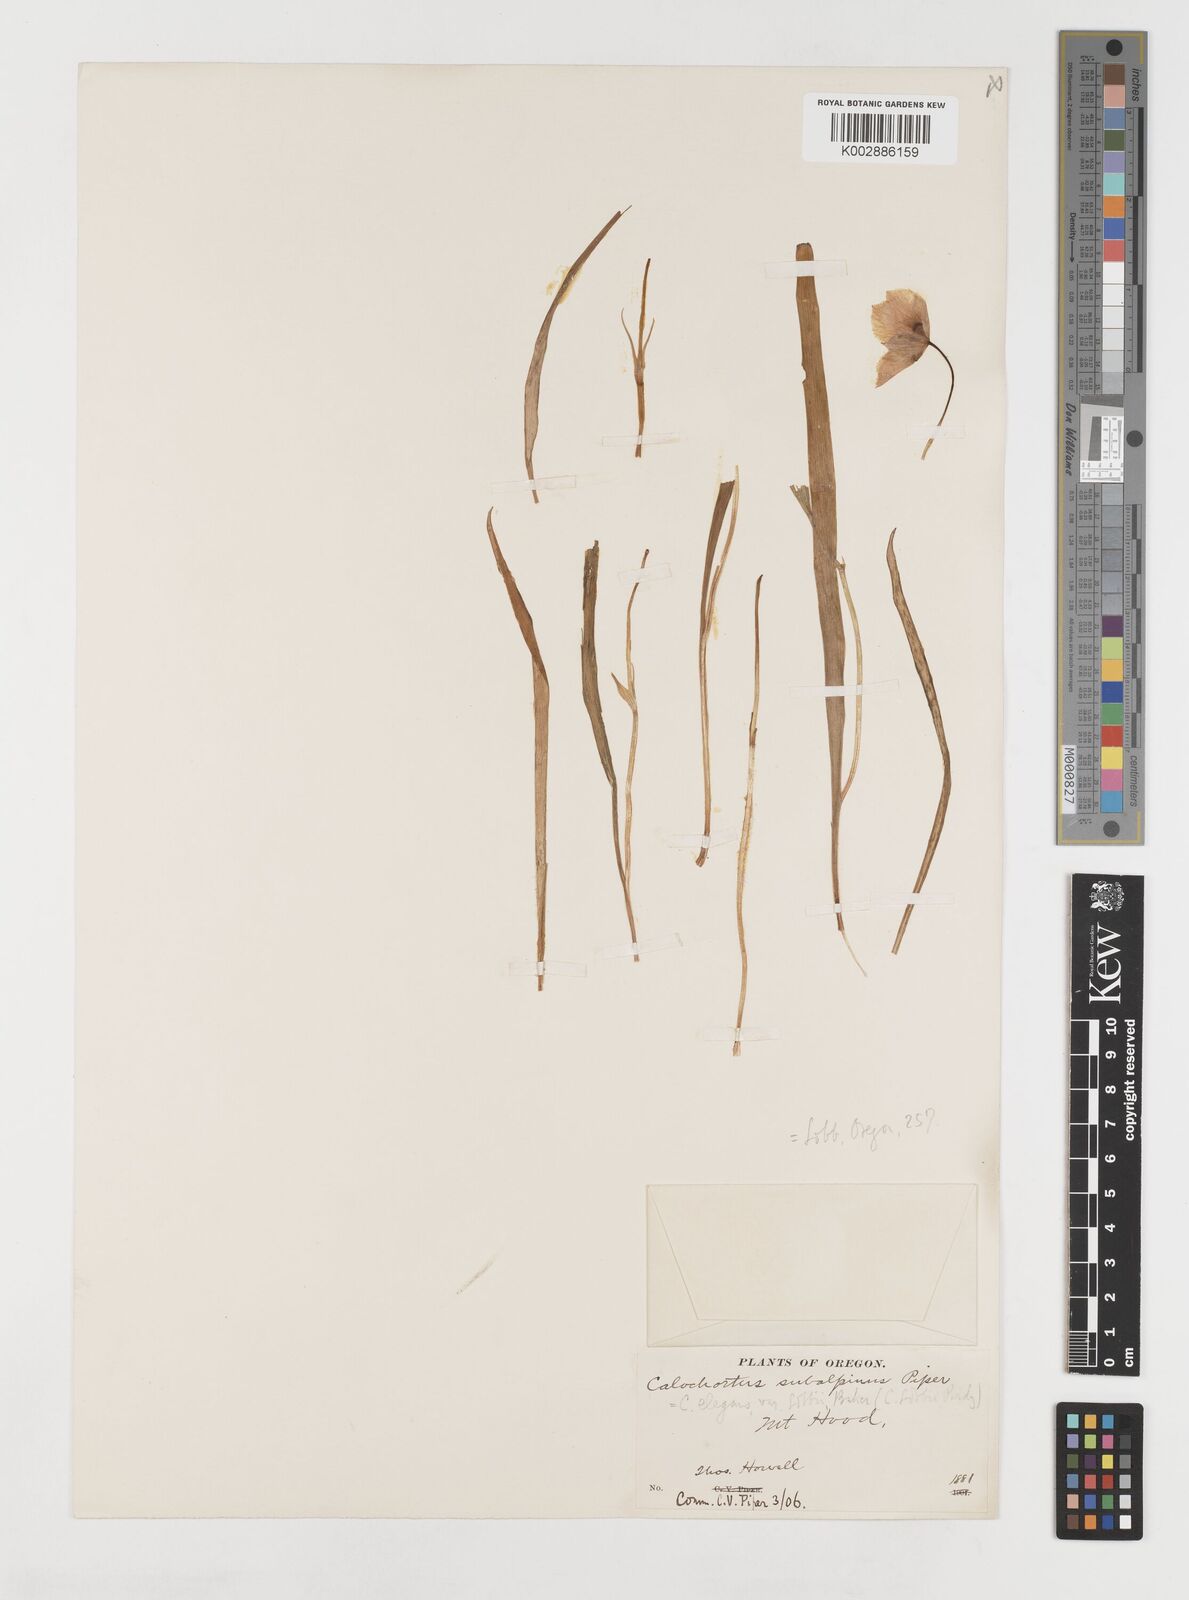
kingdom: Plantae
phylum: Tracheophyta
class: Liliopsida
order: Liliales
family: Liliaceae
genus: Calochortus
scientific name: Calochortus tolmiei
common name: Pussy-ears
